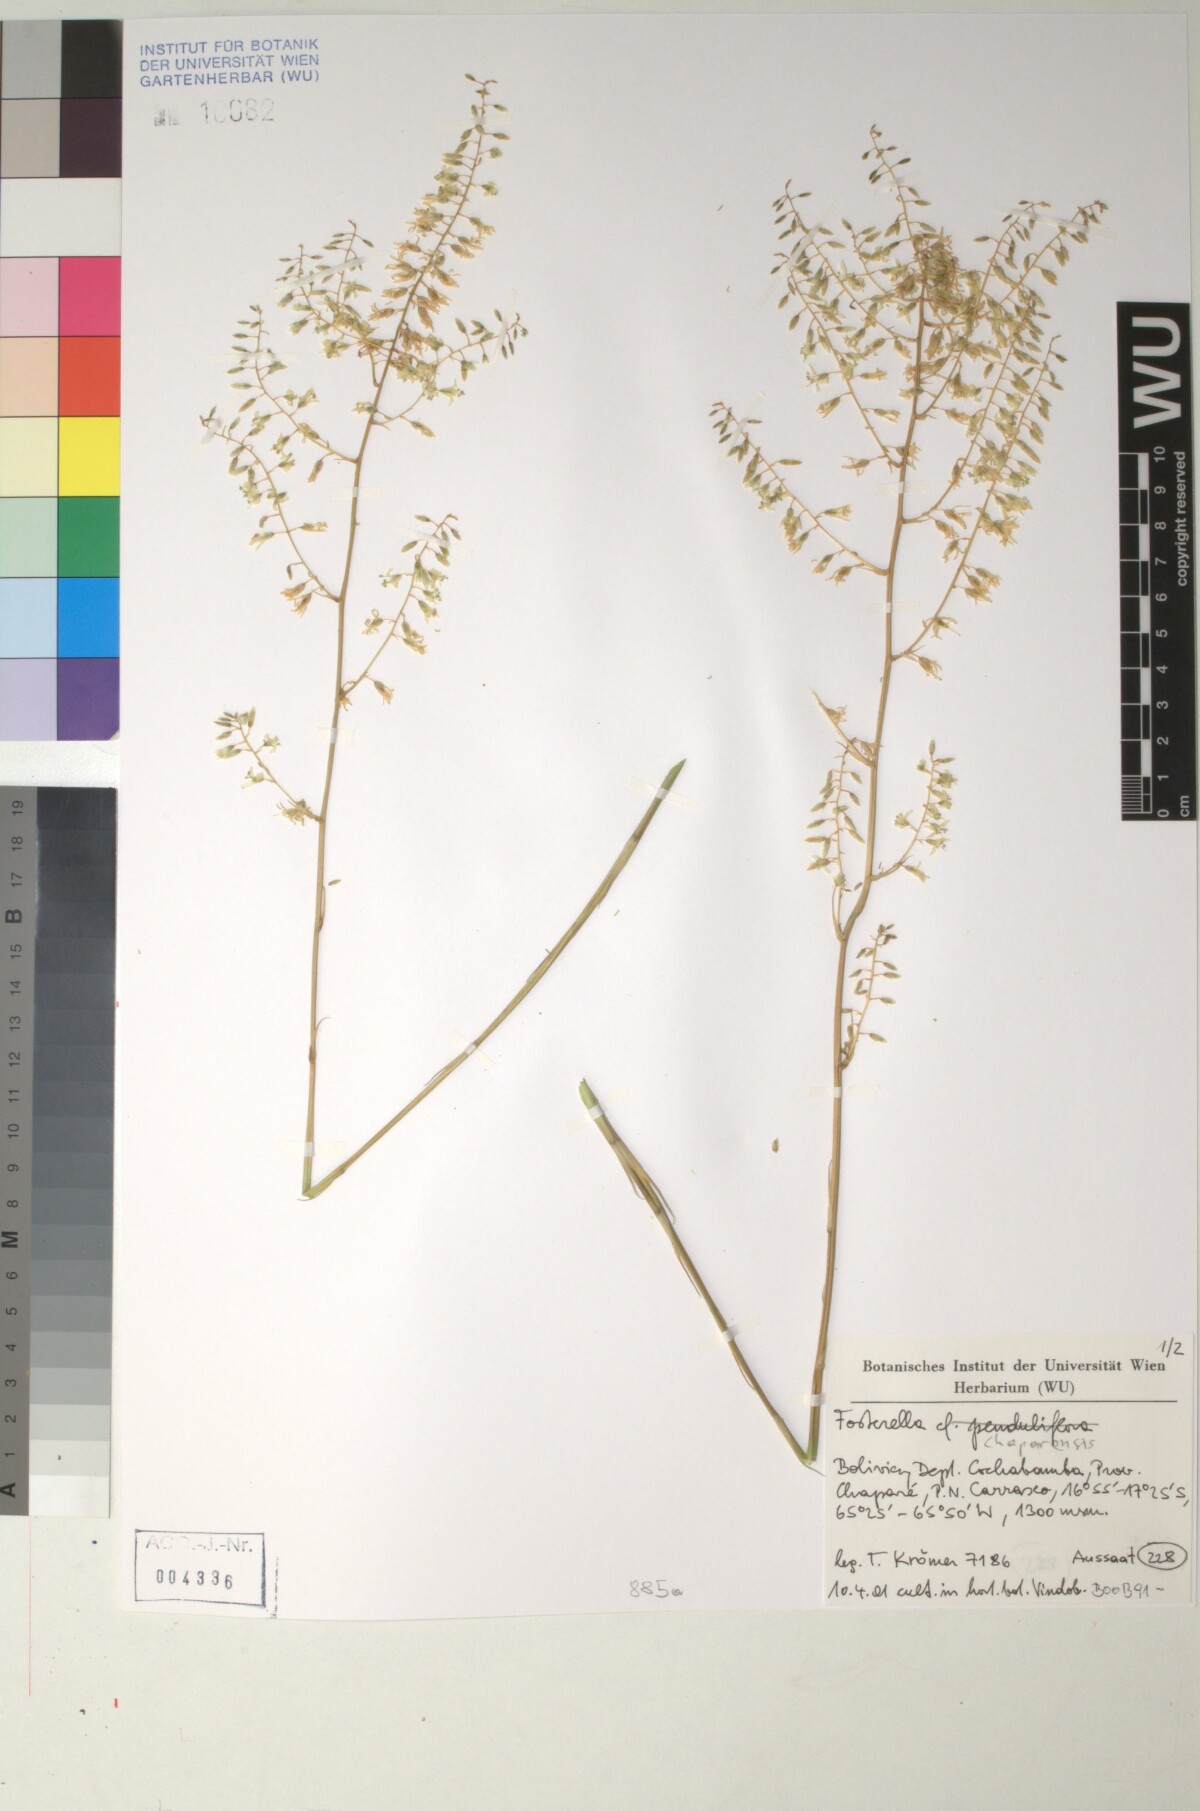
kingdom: Plantae
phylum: Tracheophyta
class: Liliopsida
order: Poales
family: Bromeliaceae
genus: Fosterella
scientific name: Fosterella chaparensis
